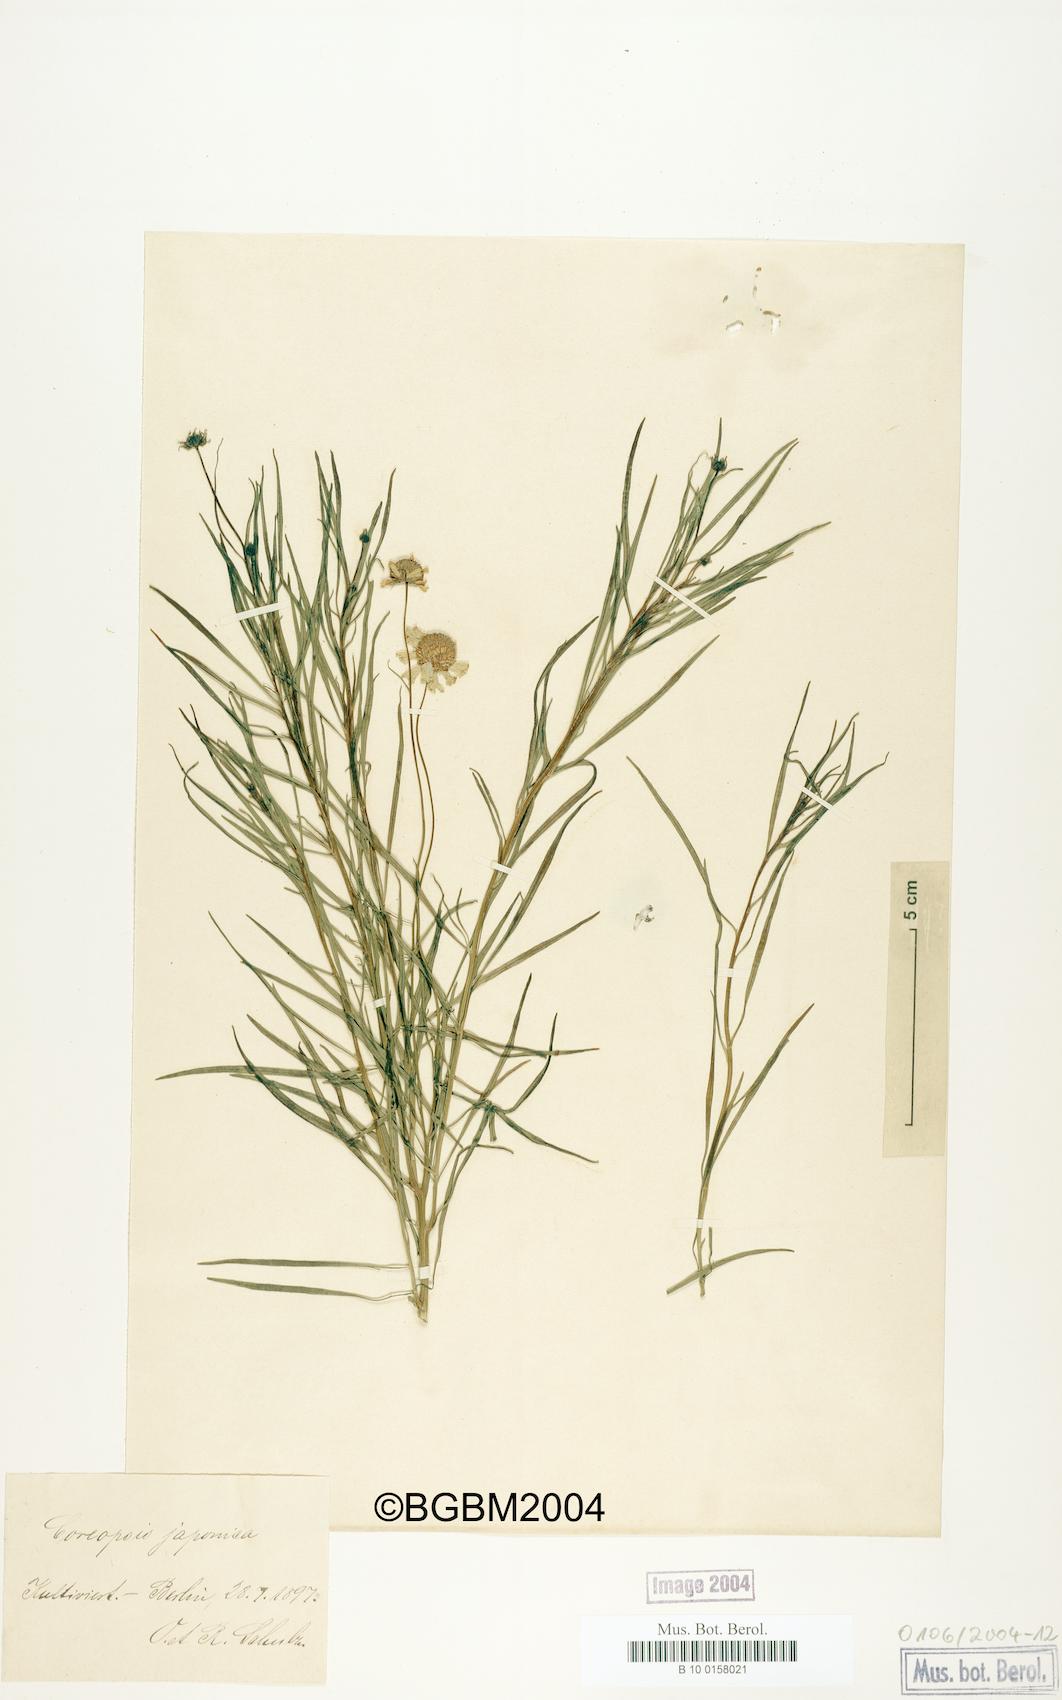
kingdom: Plantae
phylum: Tracheophyta
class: Magnoliopsida
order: Asterales
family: Asteraceae
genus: Coreopsis
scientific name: Coreopsis japonica
